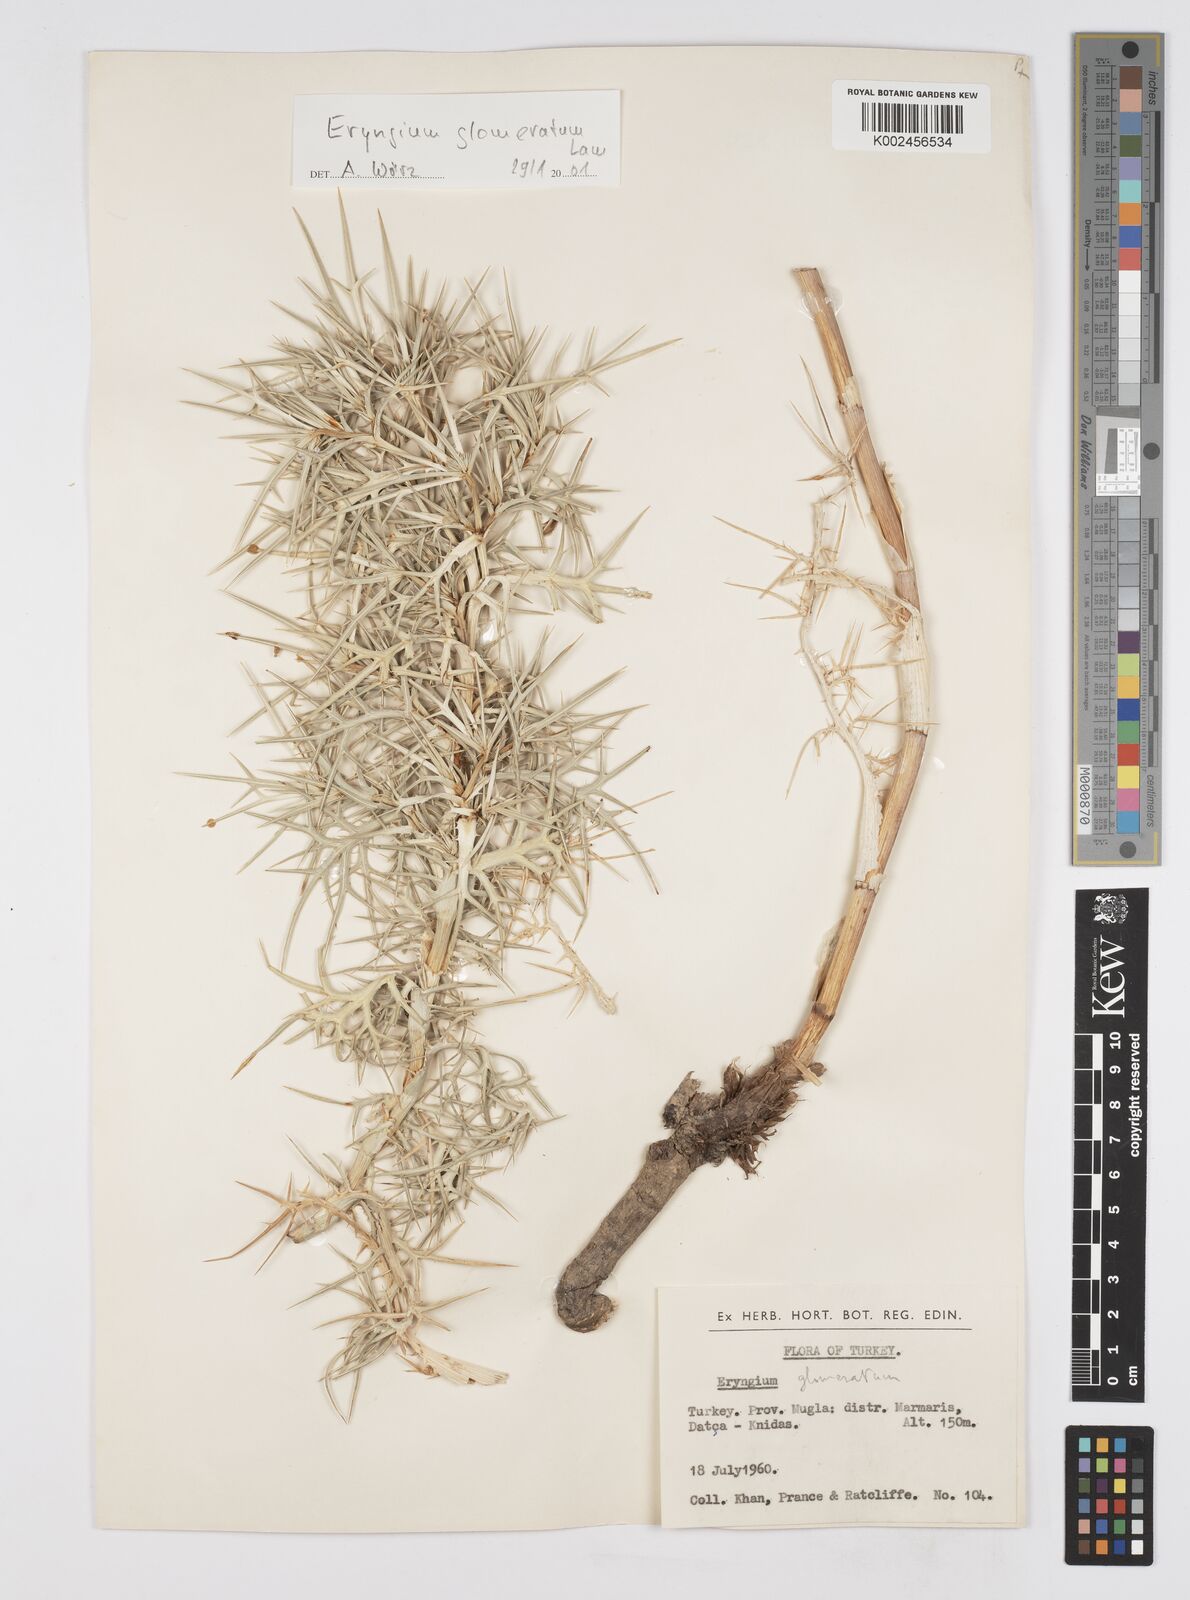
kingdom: Plantae
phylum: Tracheophyta
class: Magnoliopsida
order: Apiales
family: Apiaceae
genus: Eryngium
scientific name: Eryngium glomeratum
